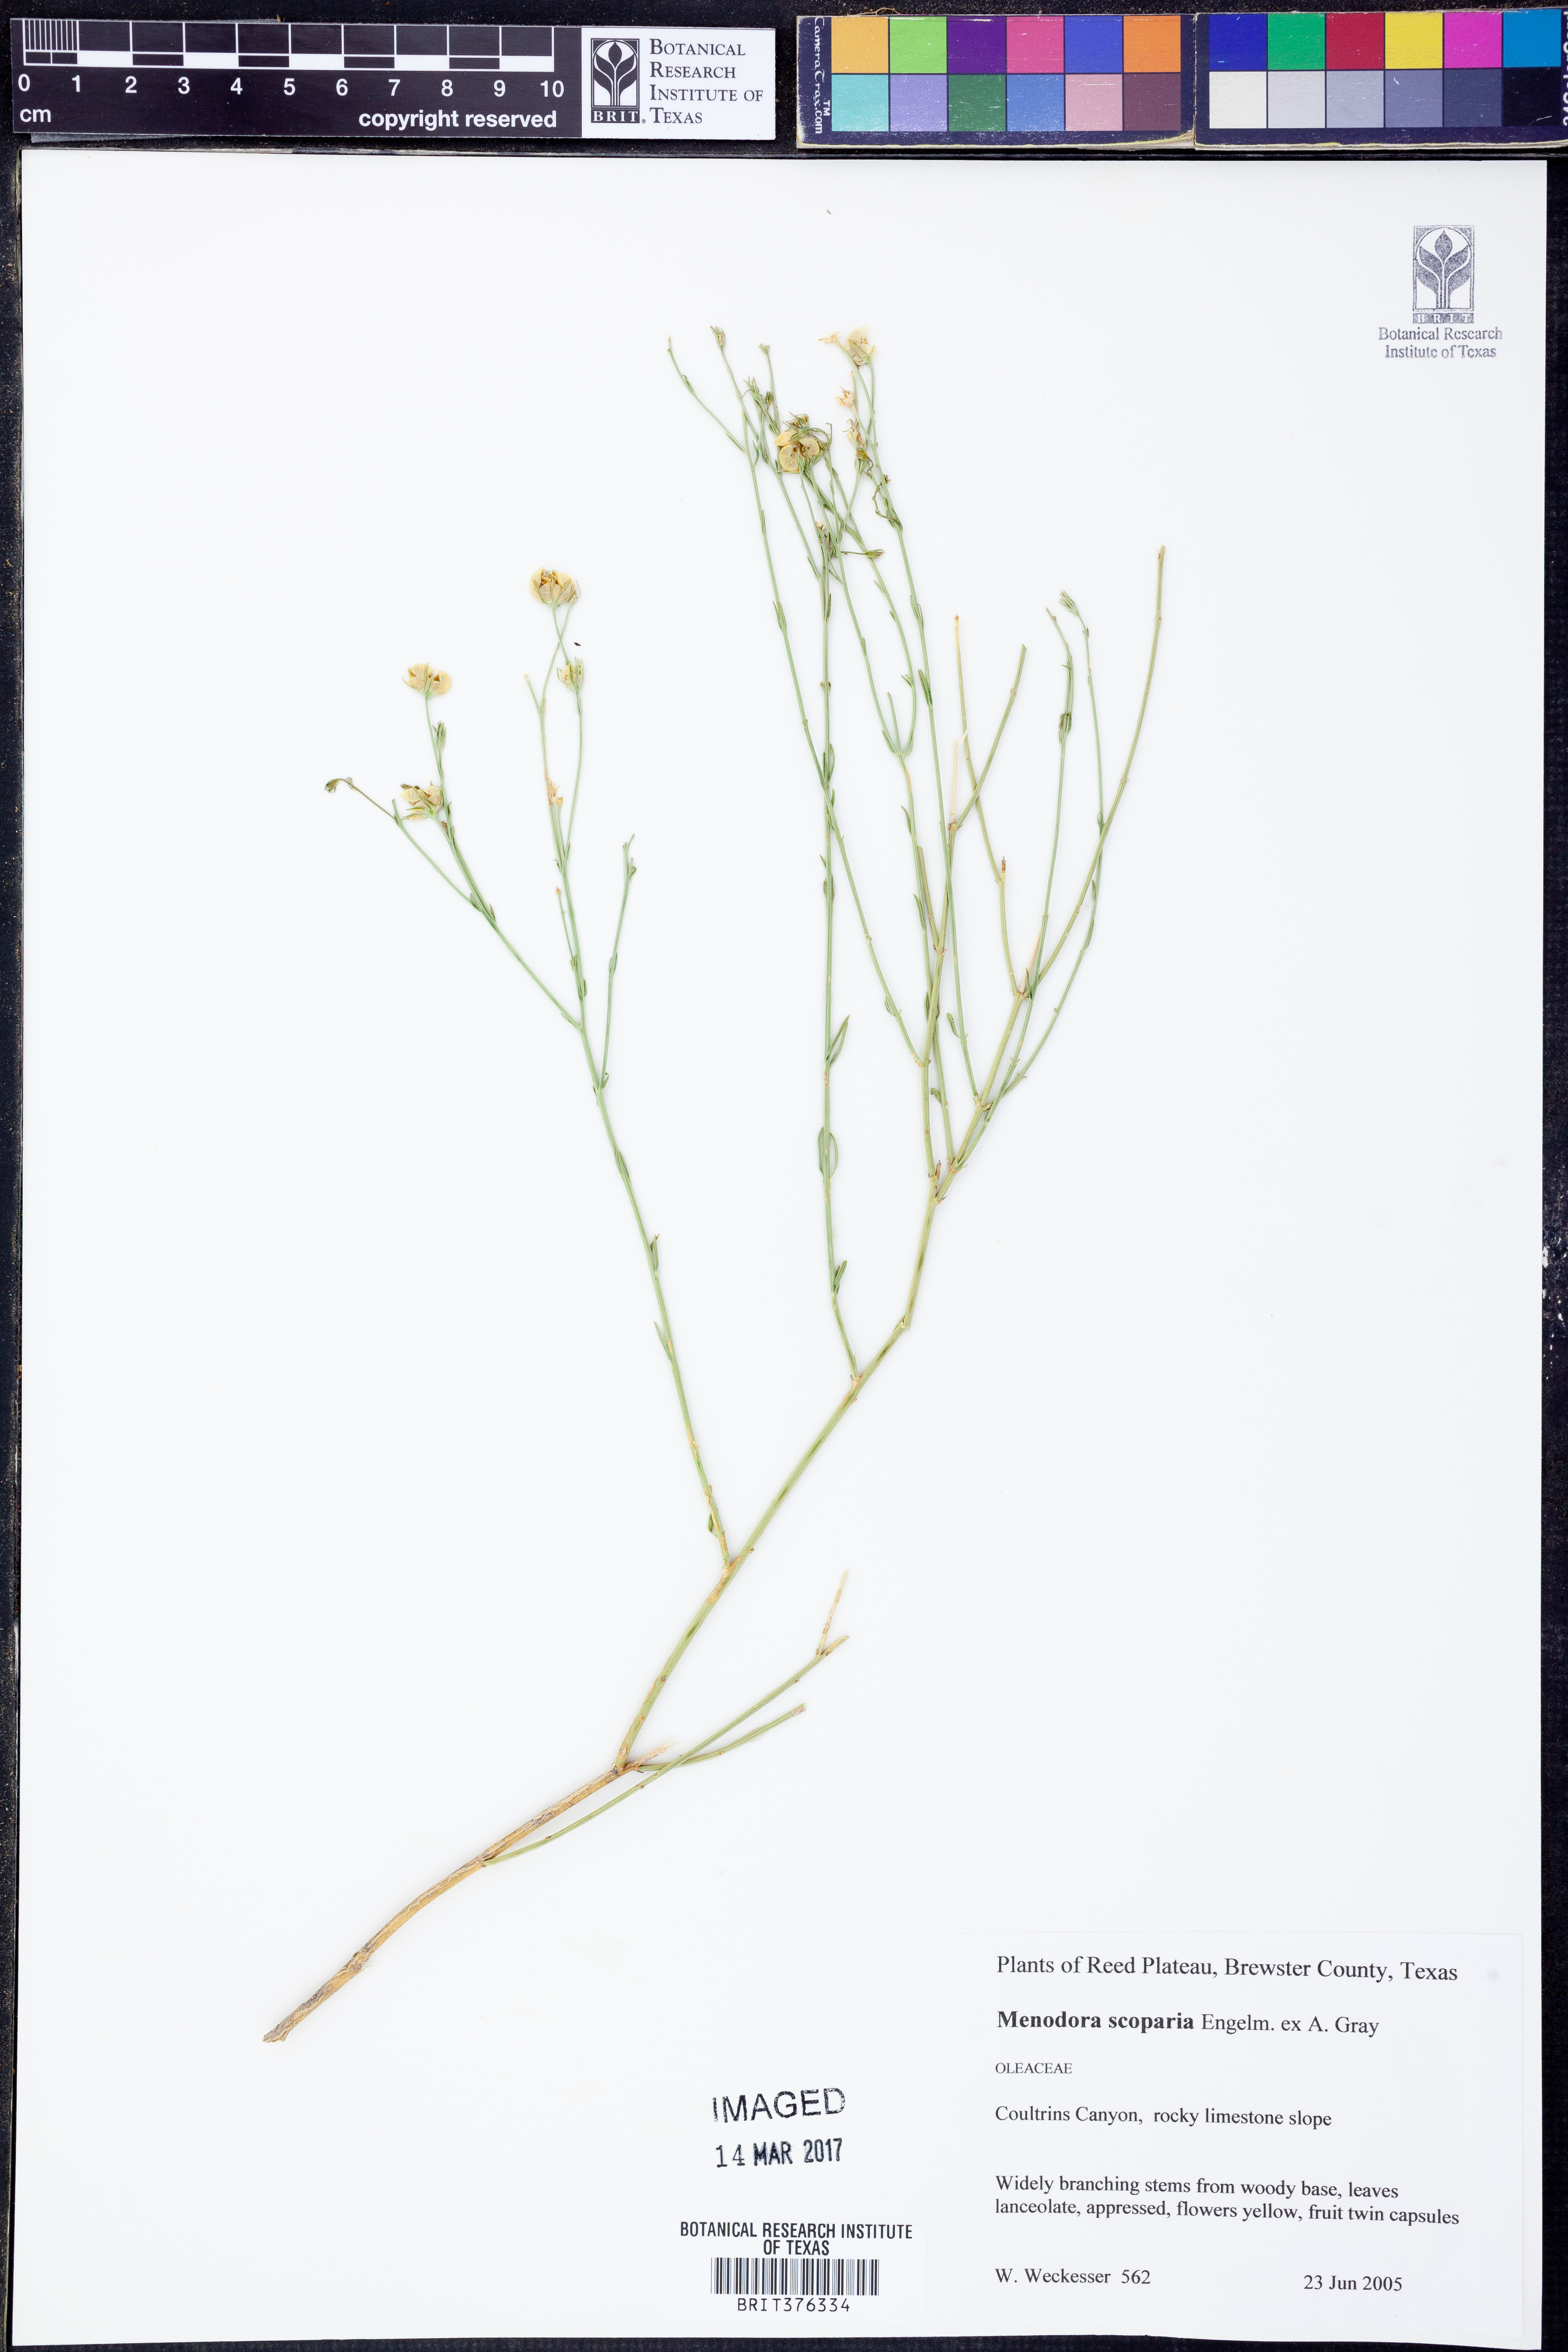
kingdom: Plantae
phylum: Tracheophyta
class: Magnoliopsida
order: Lamiales
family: Oleaceae
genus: Menodora
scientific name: Menodora scabra
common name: Rough menodora
